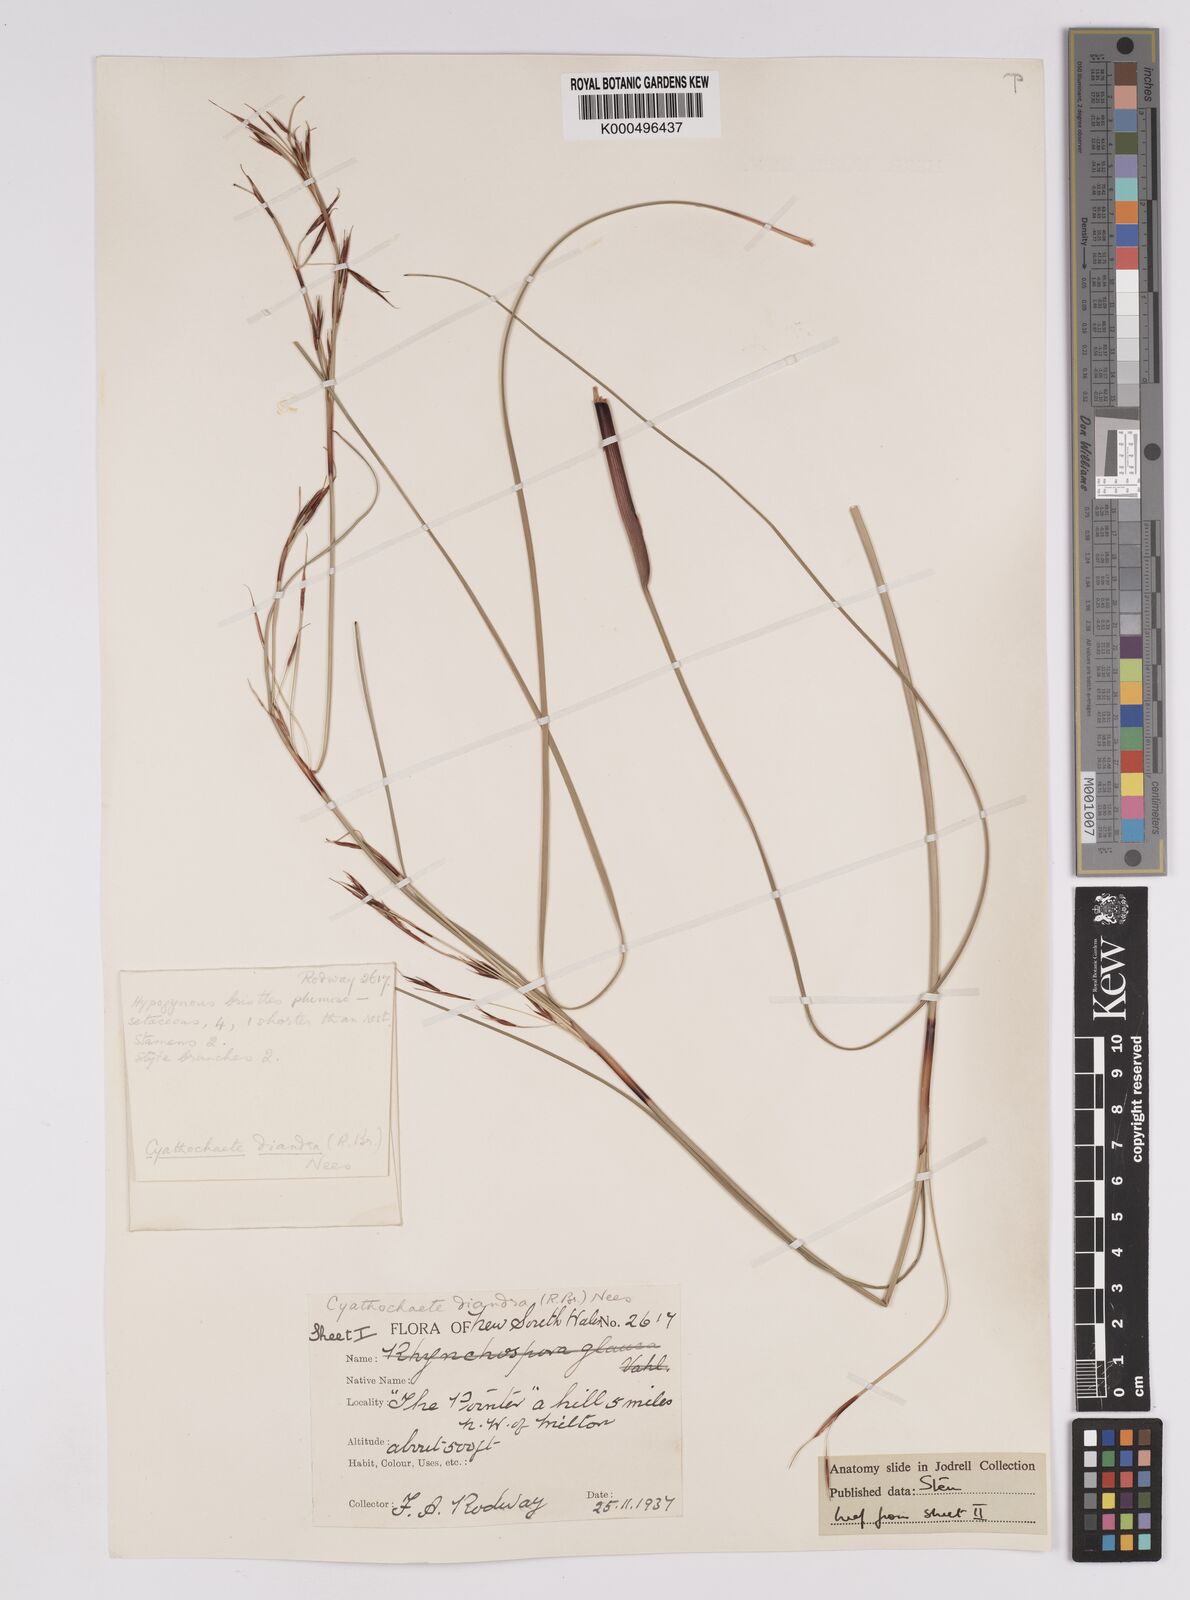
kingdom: Plantae
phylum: Tracheophyta
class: Liliopsida
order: Poales
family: Cyperaceae
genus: Cyathochaeta
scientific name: Cyathochaeta diandra
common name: Sheath rush
